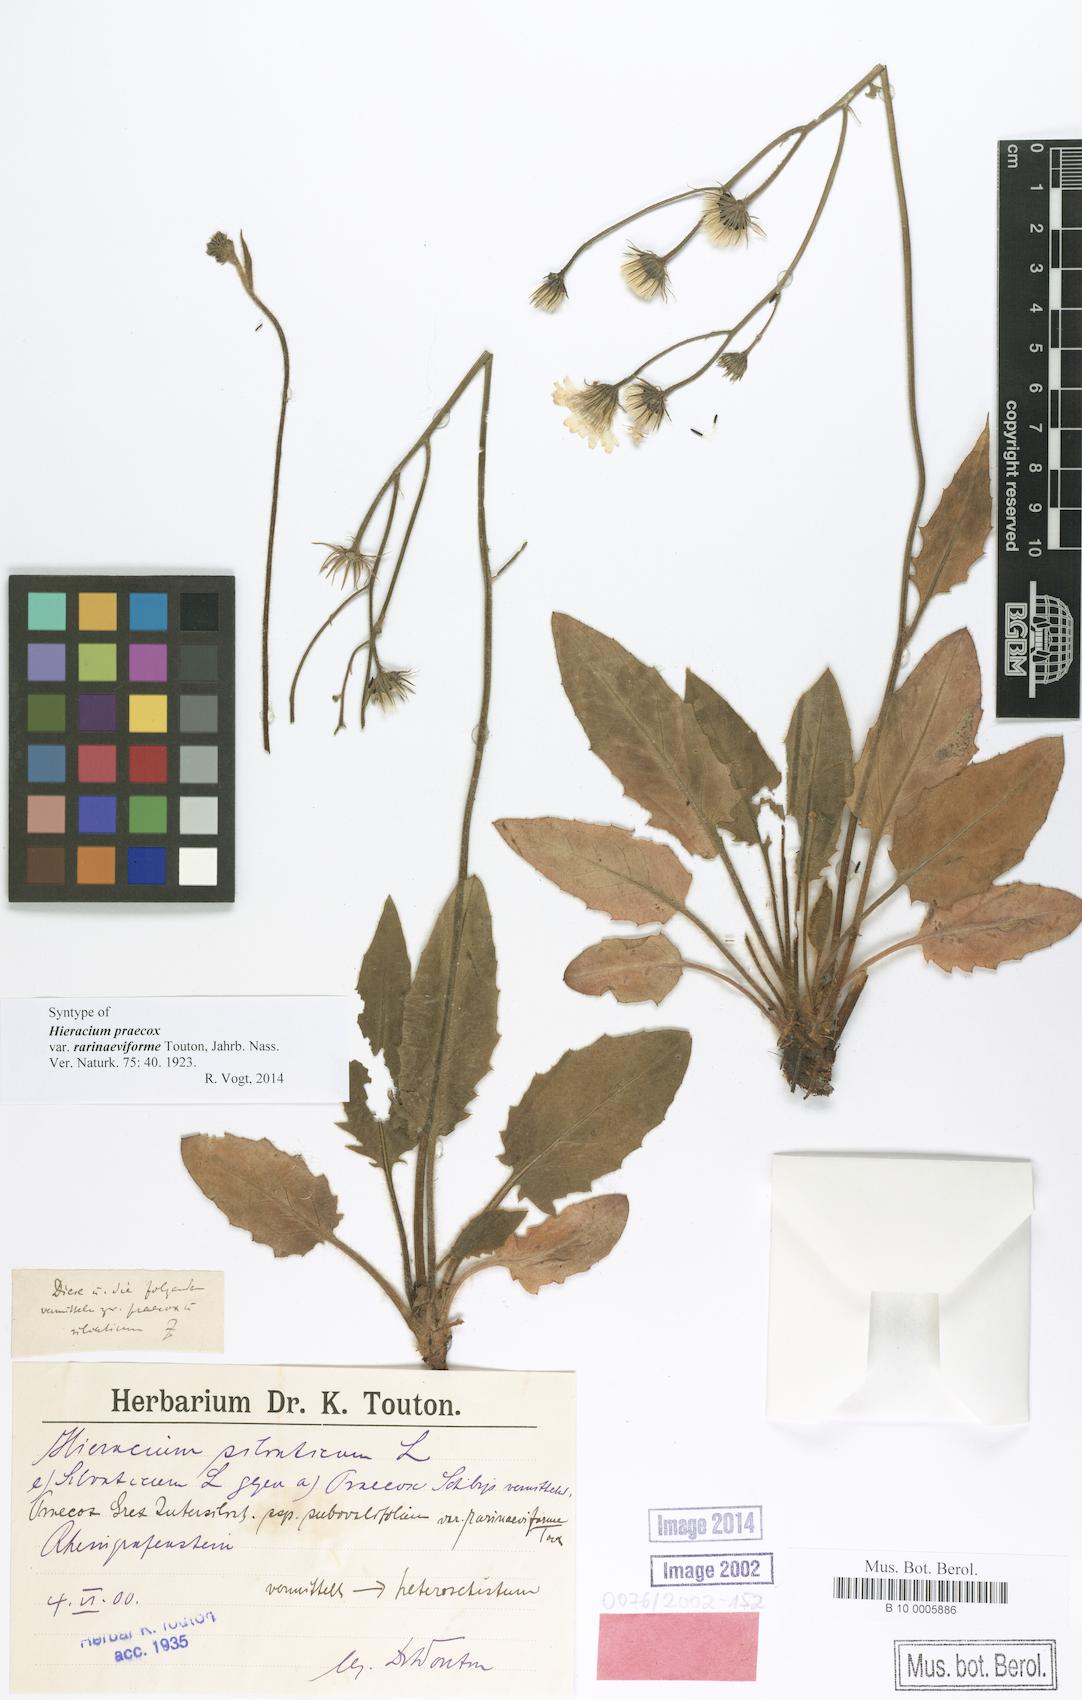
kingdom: Plantae
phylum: Tracheophyta
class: Magnoliopsida
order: Asterales
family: Asteraceae
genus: Hieracium
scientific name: Hieracium praecox
